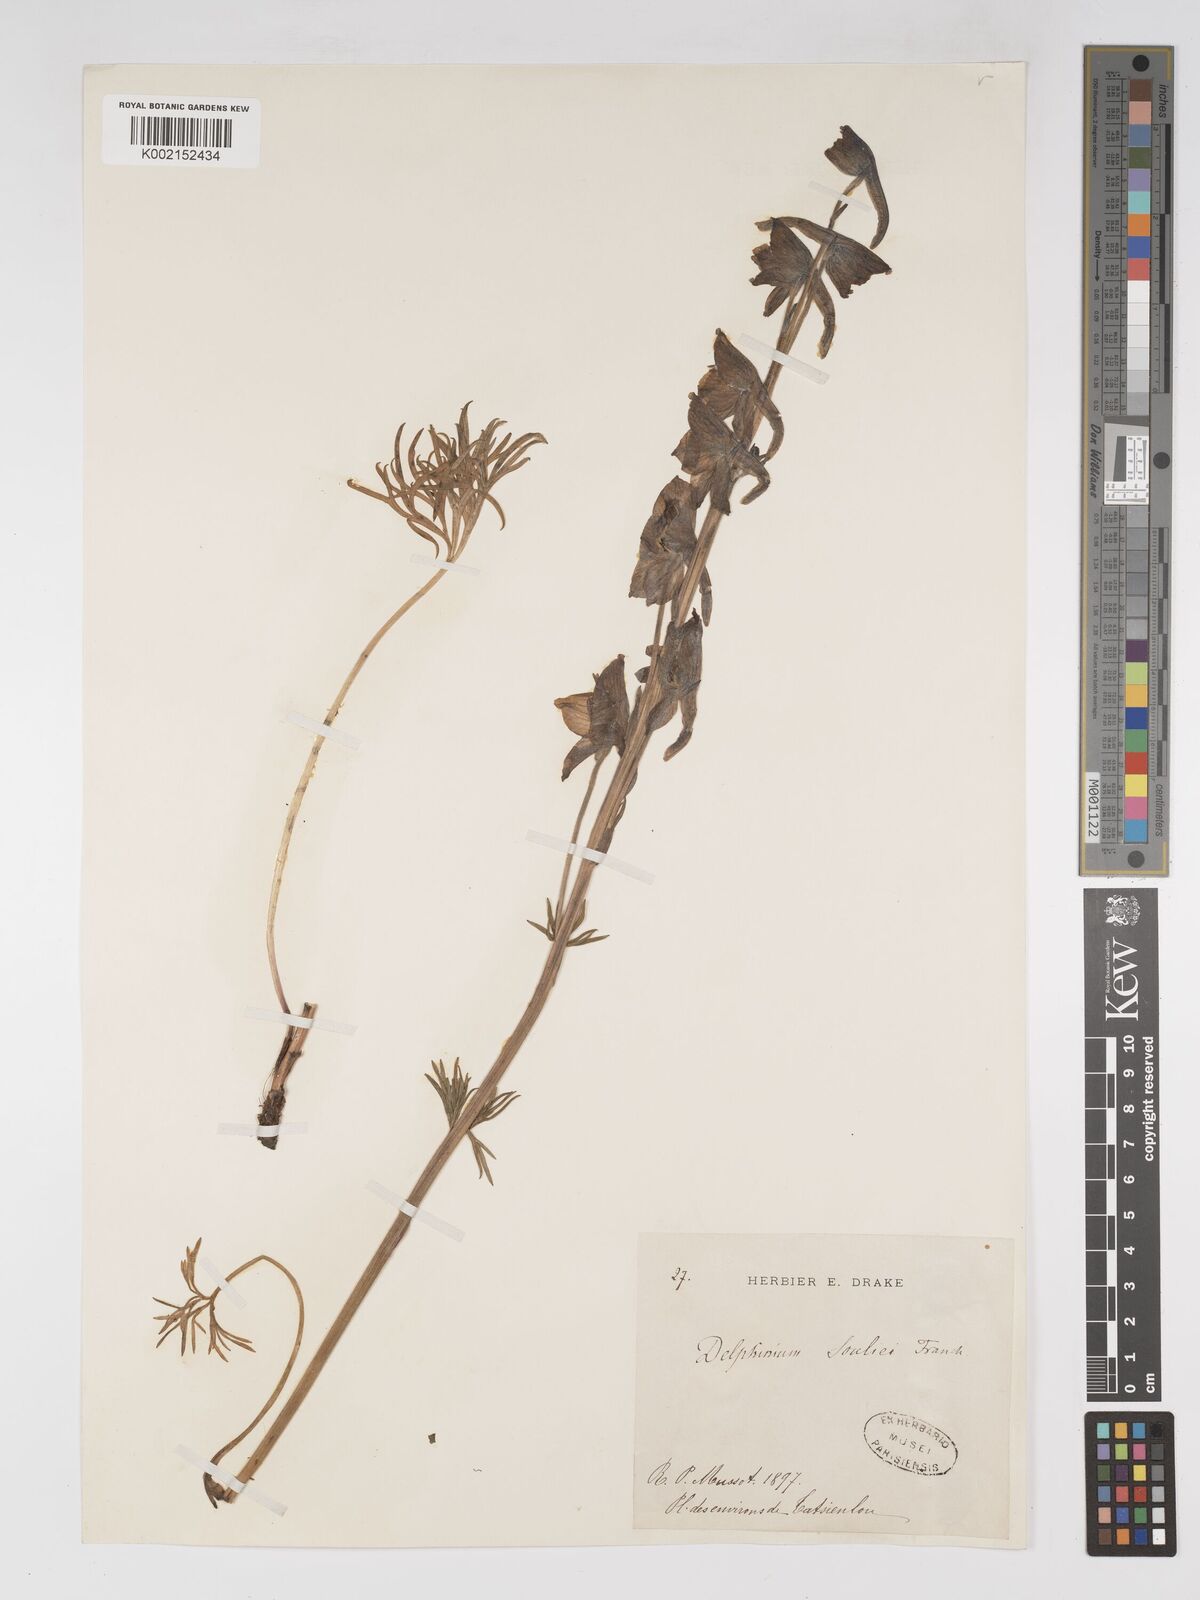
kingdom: Plantae
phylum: Tracheophyta
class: Magnoliopsida
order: Ranunculales
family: Ranunculaceae
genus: Delphinium
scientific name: Delphinium souliei
